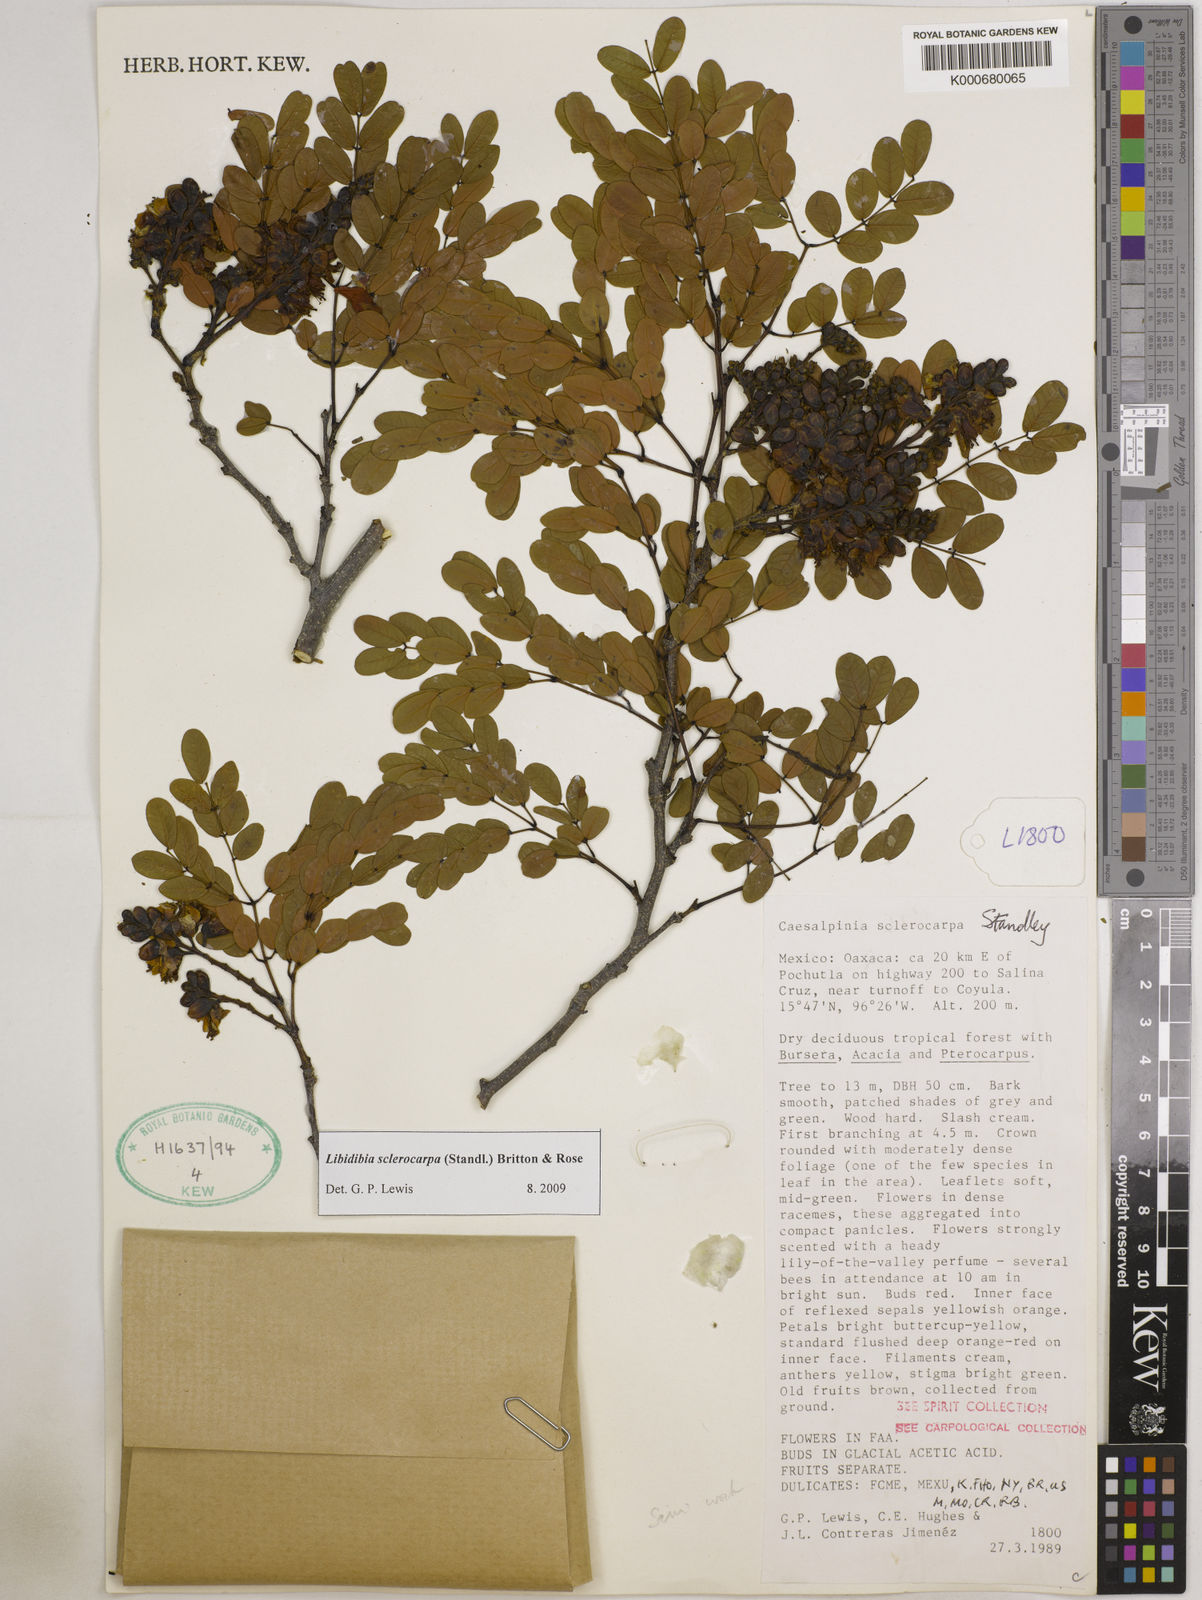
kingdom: Plantae
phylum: Tracheophyta
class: Magnoliopsida
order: Fabales
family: Fabaceae
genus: Libidibia
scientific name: Libidibia sclerocarpa
